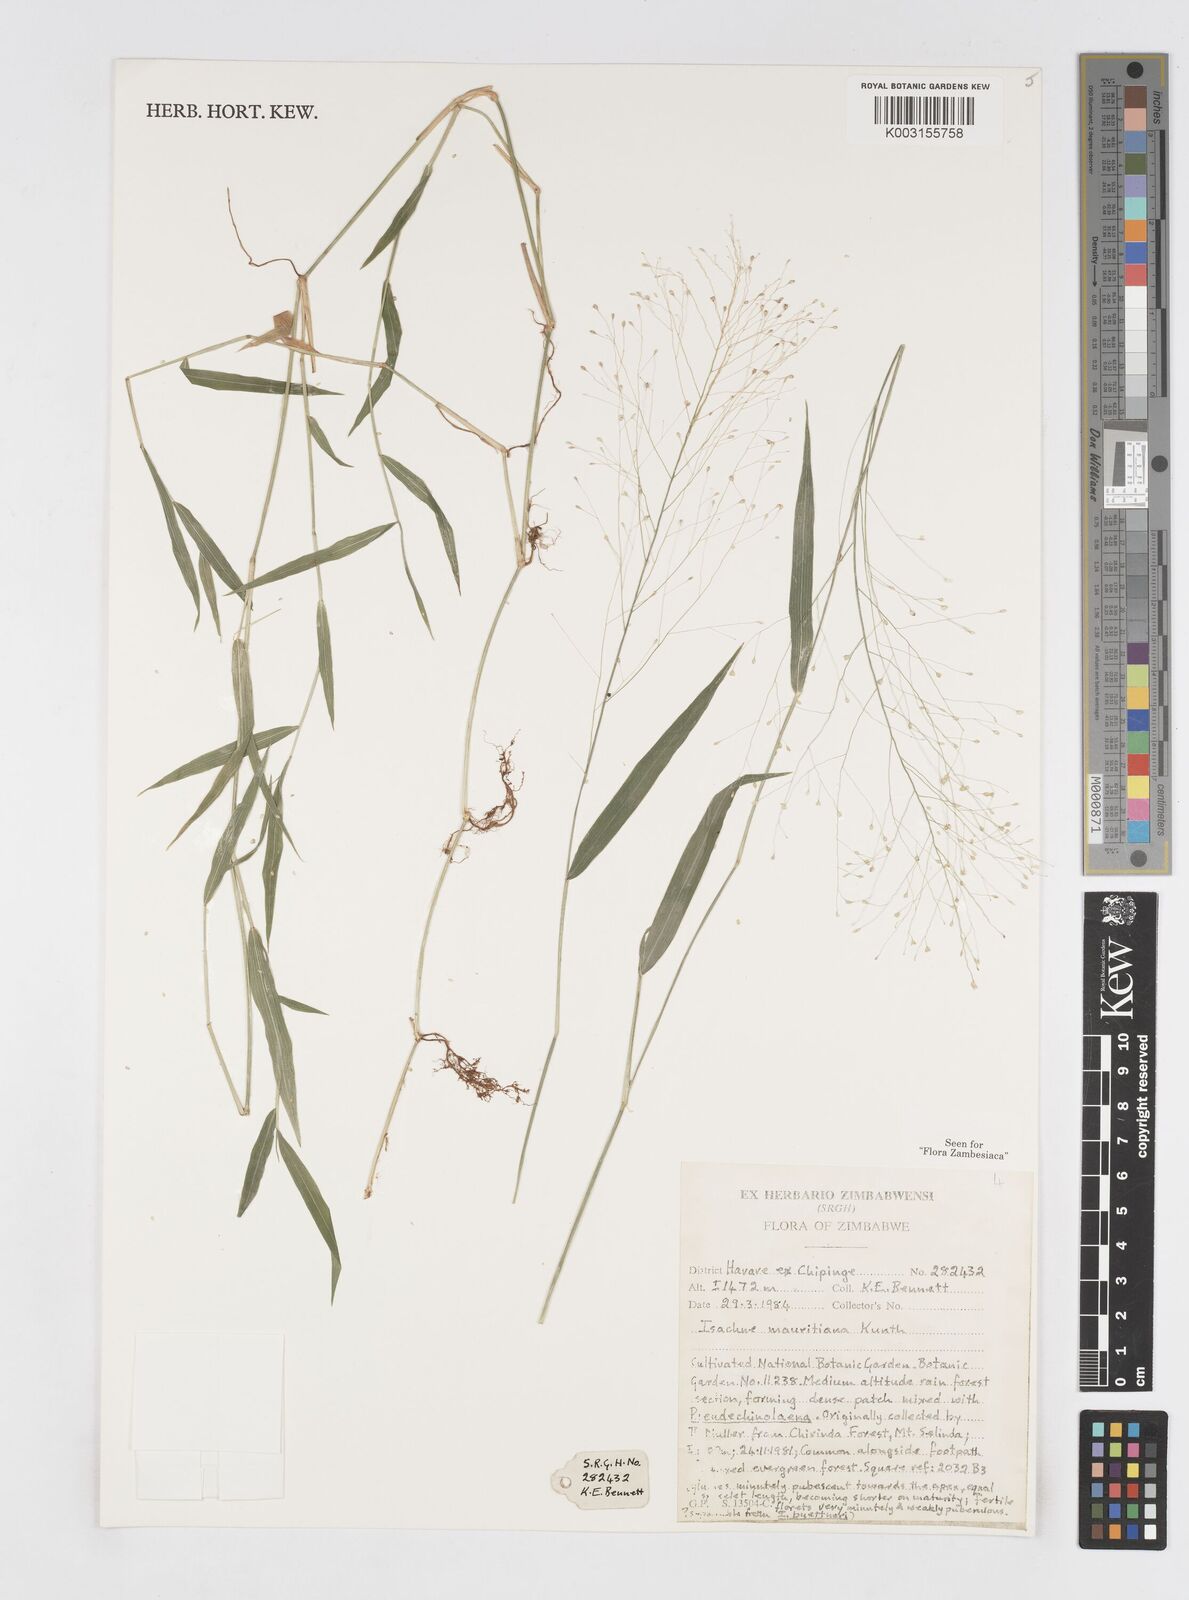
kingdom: Plantae
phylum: Tracheophyta
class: Liliopsida
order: Poales
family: Poaceae
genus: Isachne
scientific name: Isachne mauritiana
